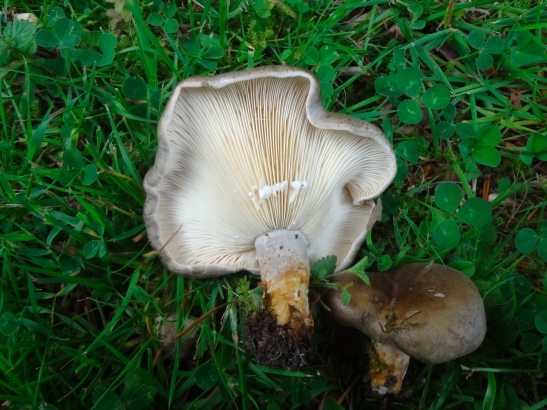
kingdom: Fungi
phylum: Basidiomycota
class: Agaricomycetes
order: Russulales
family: Russulaceae
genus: Lactarius
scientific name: Lactarius circellatus
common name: avnbøg-mælkehat
